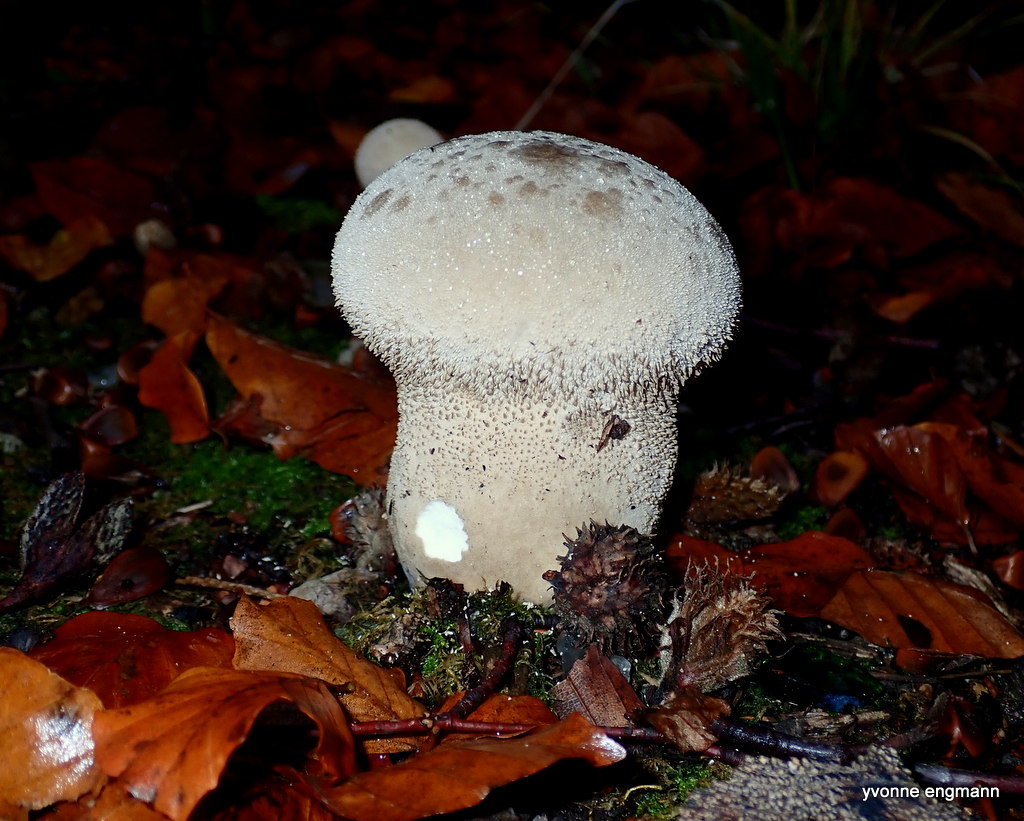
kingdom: Fungi
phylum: Basidiomycota
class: Agaricomycetes
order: Agaricales
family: Lycoperdaceae
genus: Lycoperdon
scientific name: Lycoperdon excipuliforme
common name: højstokket støvbold
